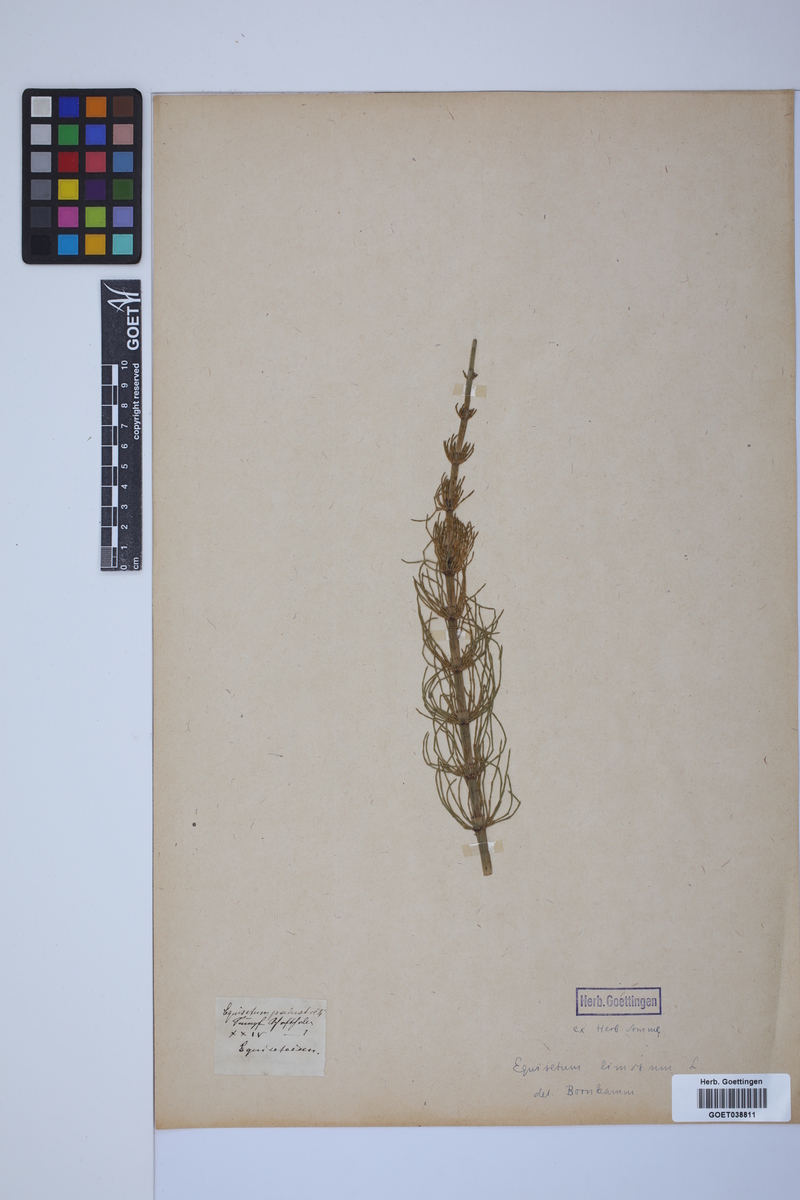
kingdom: Plantae
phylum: Tracheophyta
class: Polypodiopsida
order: Equisetales
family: Equisetaceae
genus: Equisetum
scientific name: Equisetum palustre
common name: Marsh horsetail
